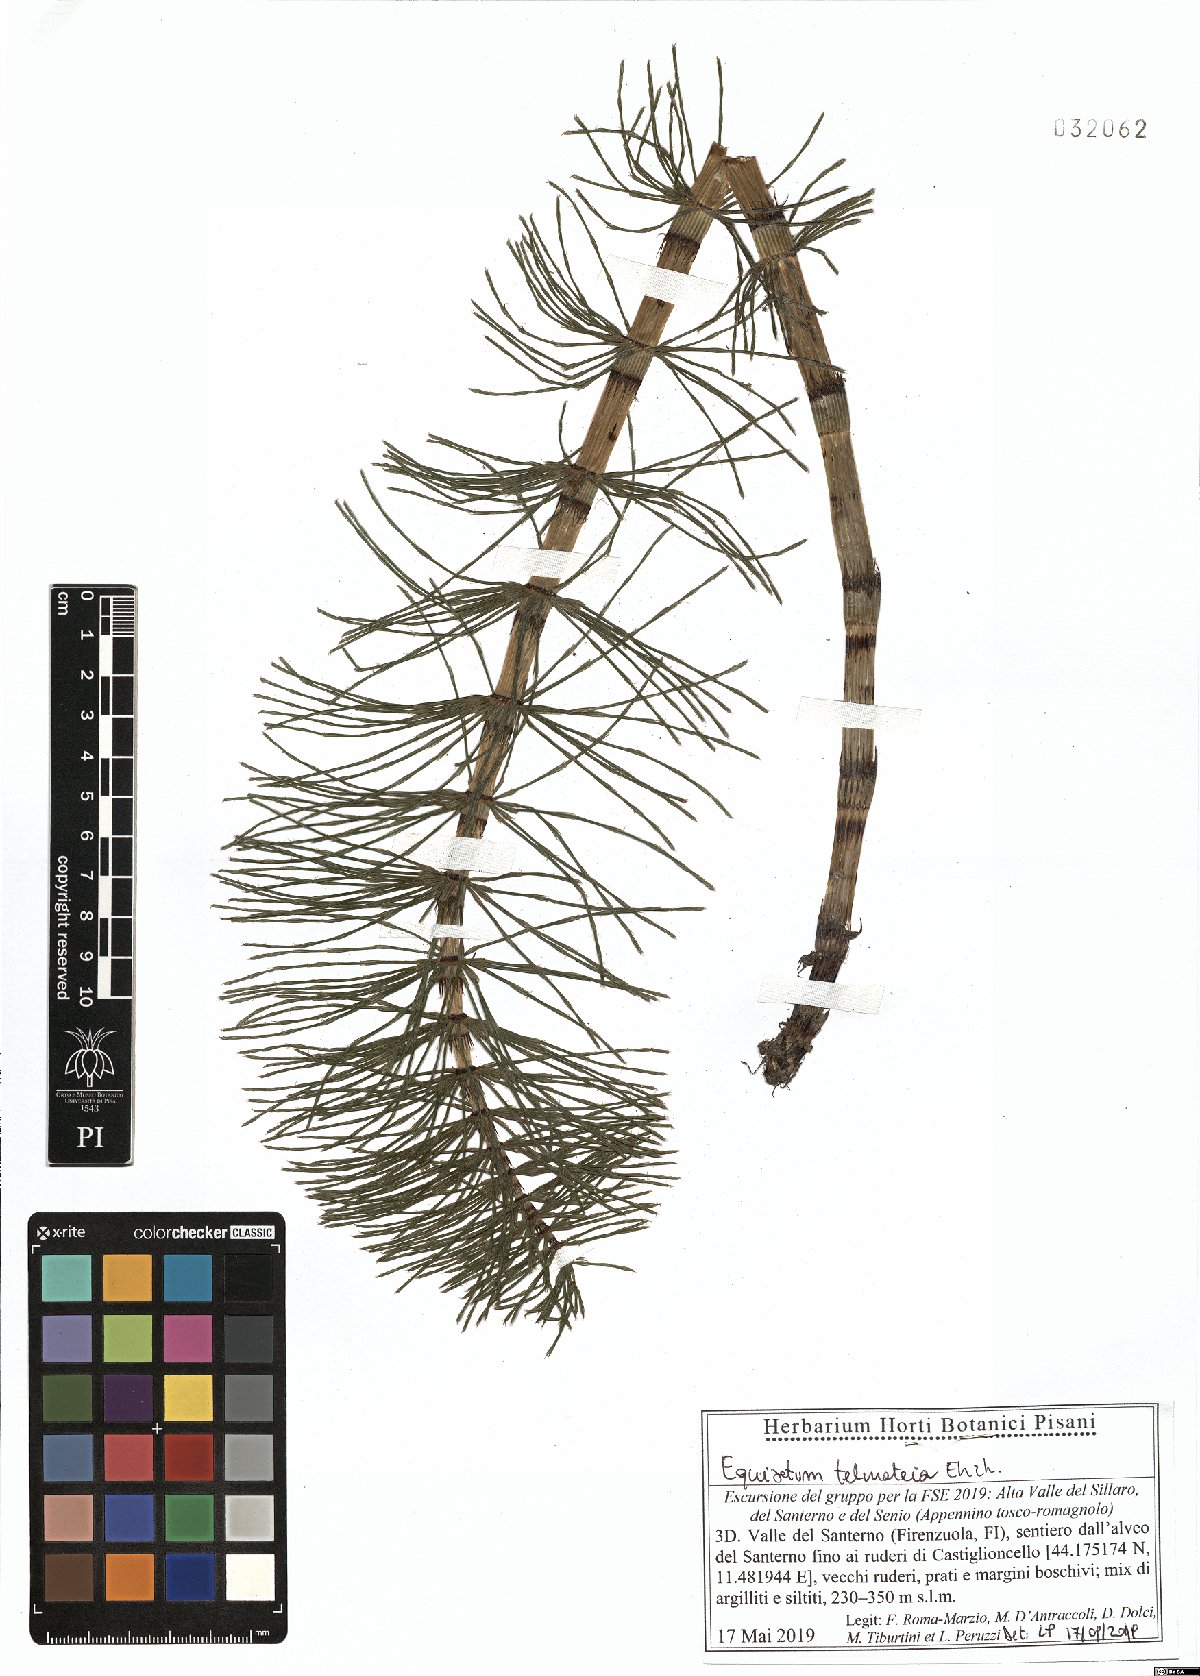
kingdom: Plantae
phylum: Tracheophyta
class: Polypodiopsida
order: Equisetales
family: Equisetaceae
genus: Equisetum
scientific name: Equisetum telmateia
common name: Great horsetail
